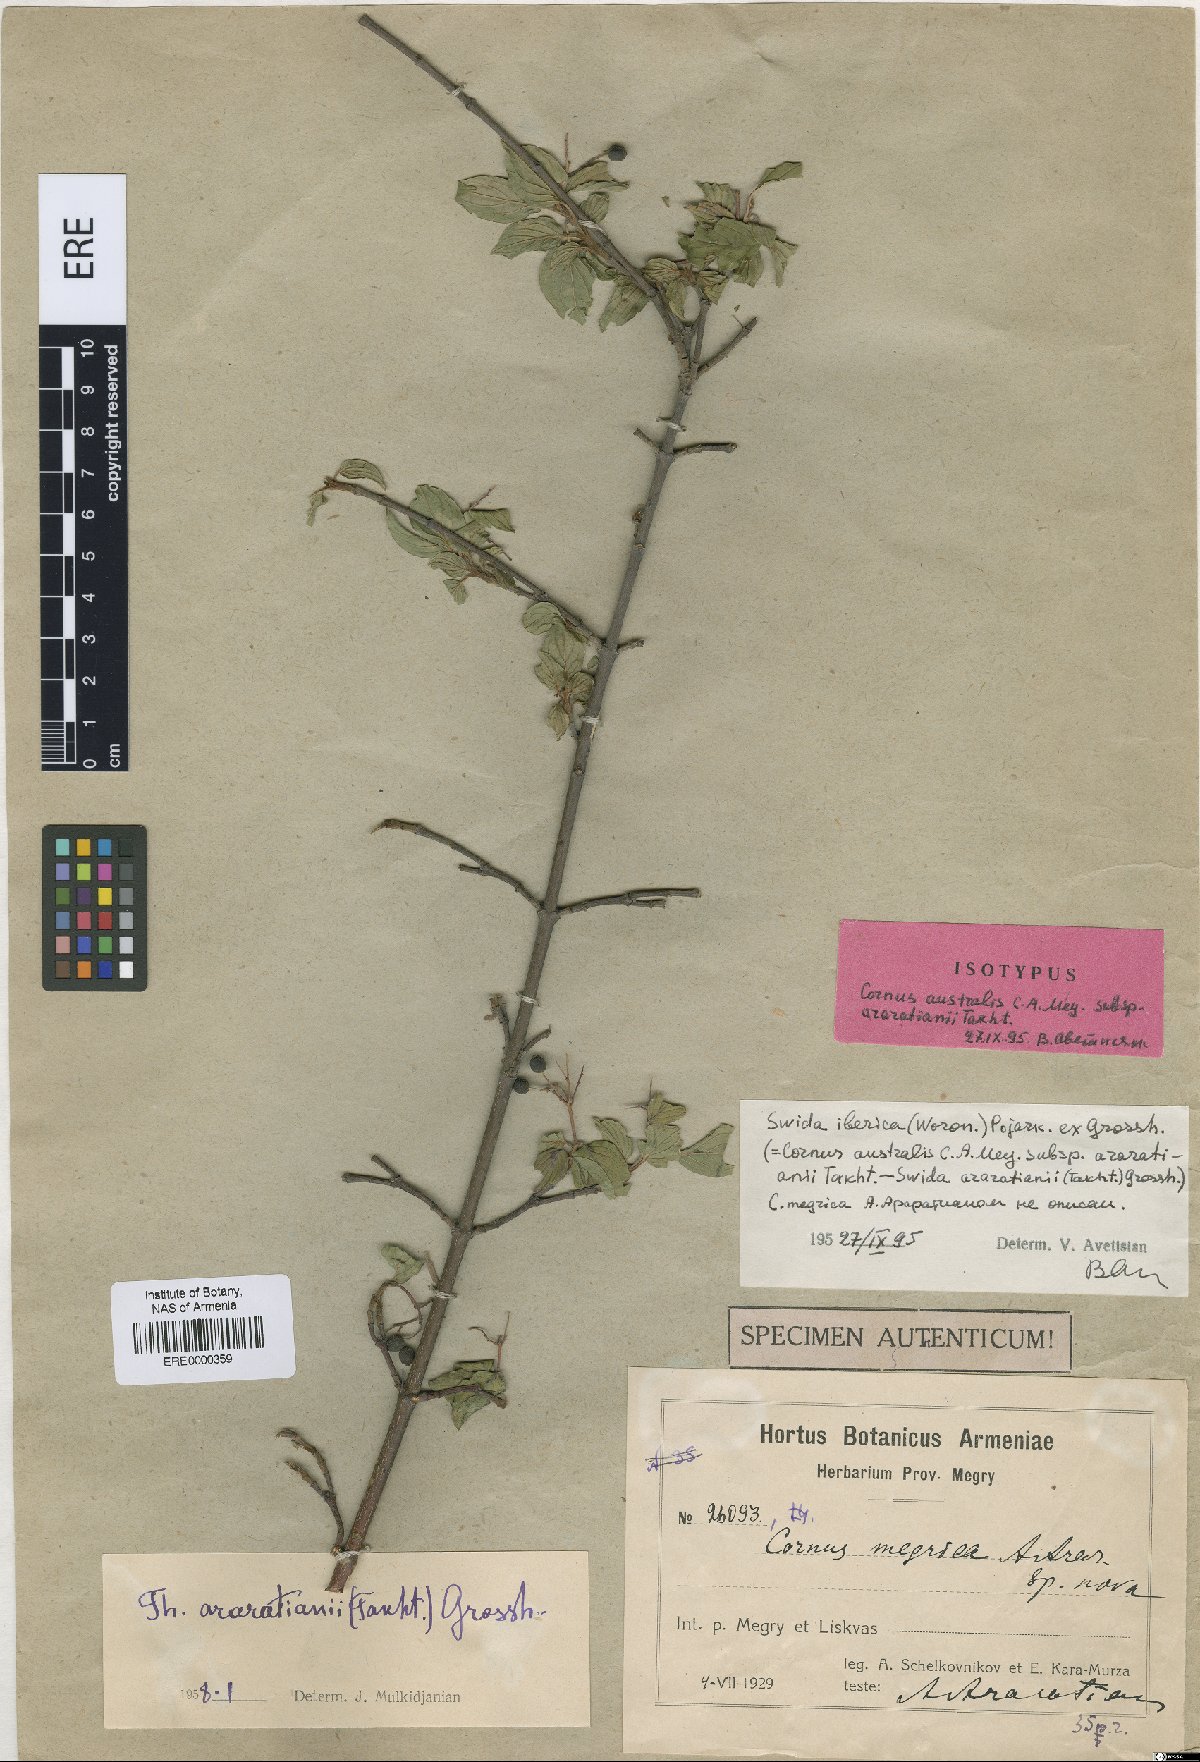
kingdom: Plantae
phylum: Tracheophyta
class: Magnoliopsida
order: Cornales
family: Cornaceae
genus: Cornus
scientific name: Cornus sanguinea
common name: Dogwood
